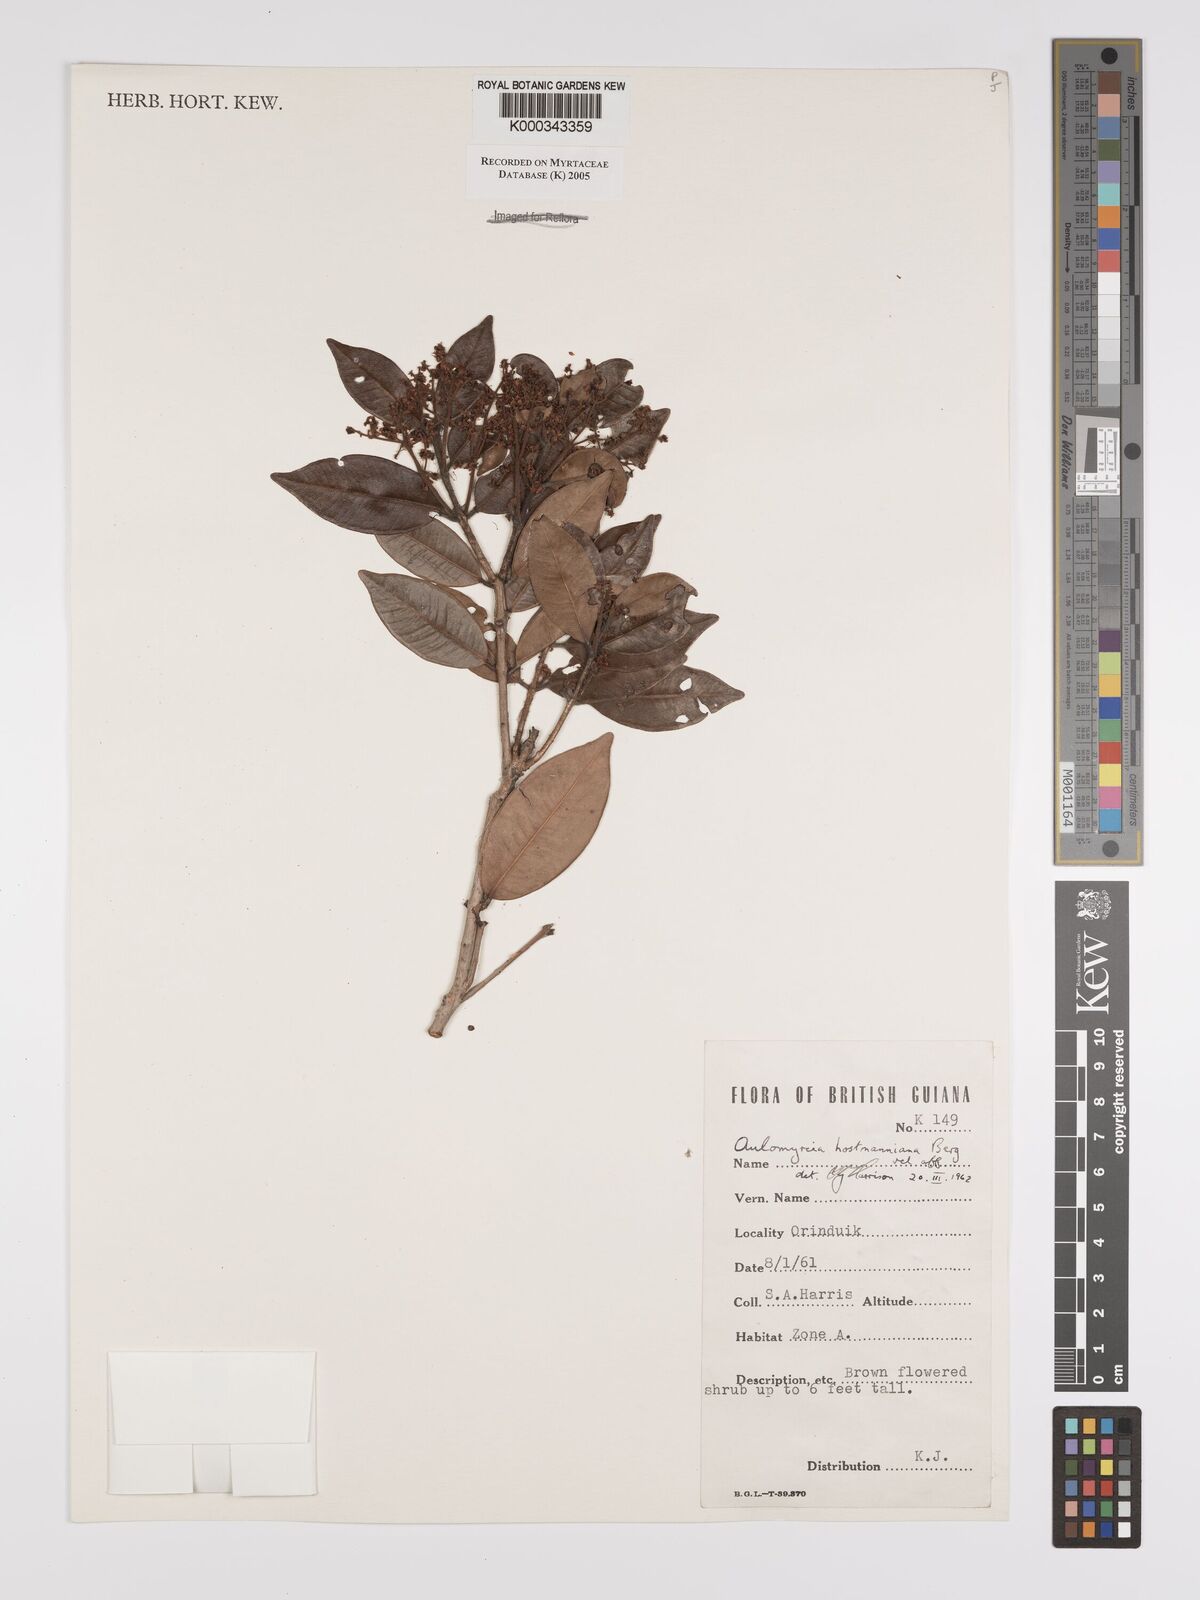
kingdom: Plantae
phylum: Tracheophyta
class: Magnoliopsida
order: Myrtales
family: Myrtaceae
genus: Myrcia
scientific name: Myrcia amazonica
